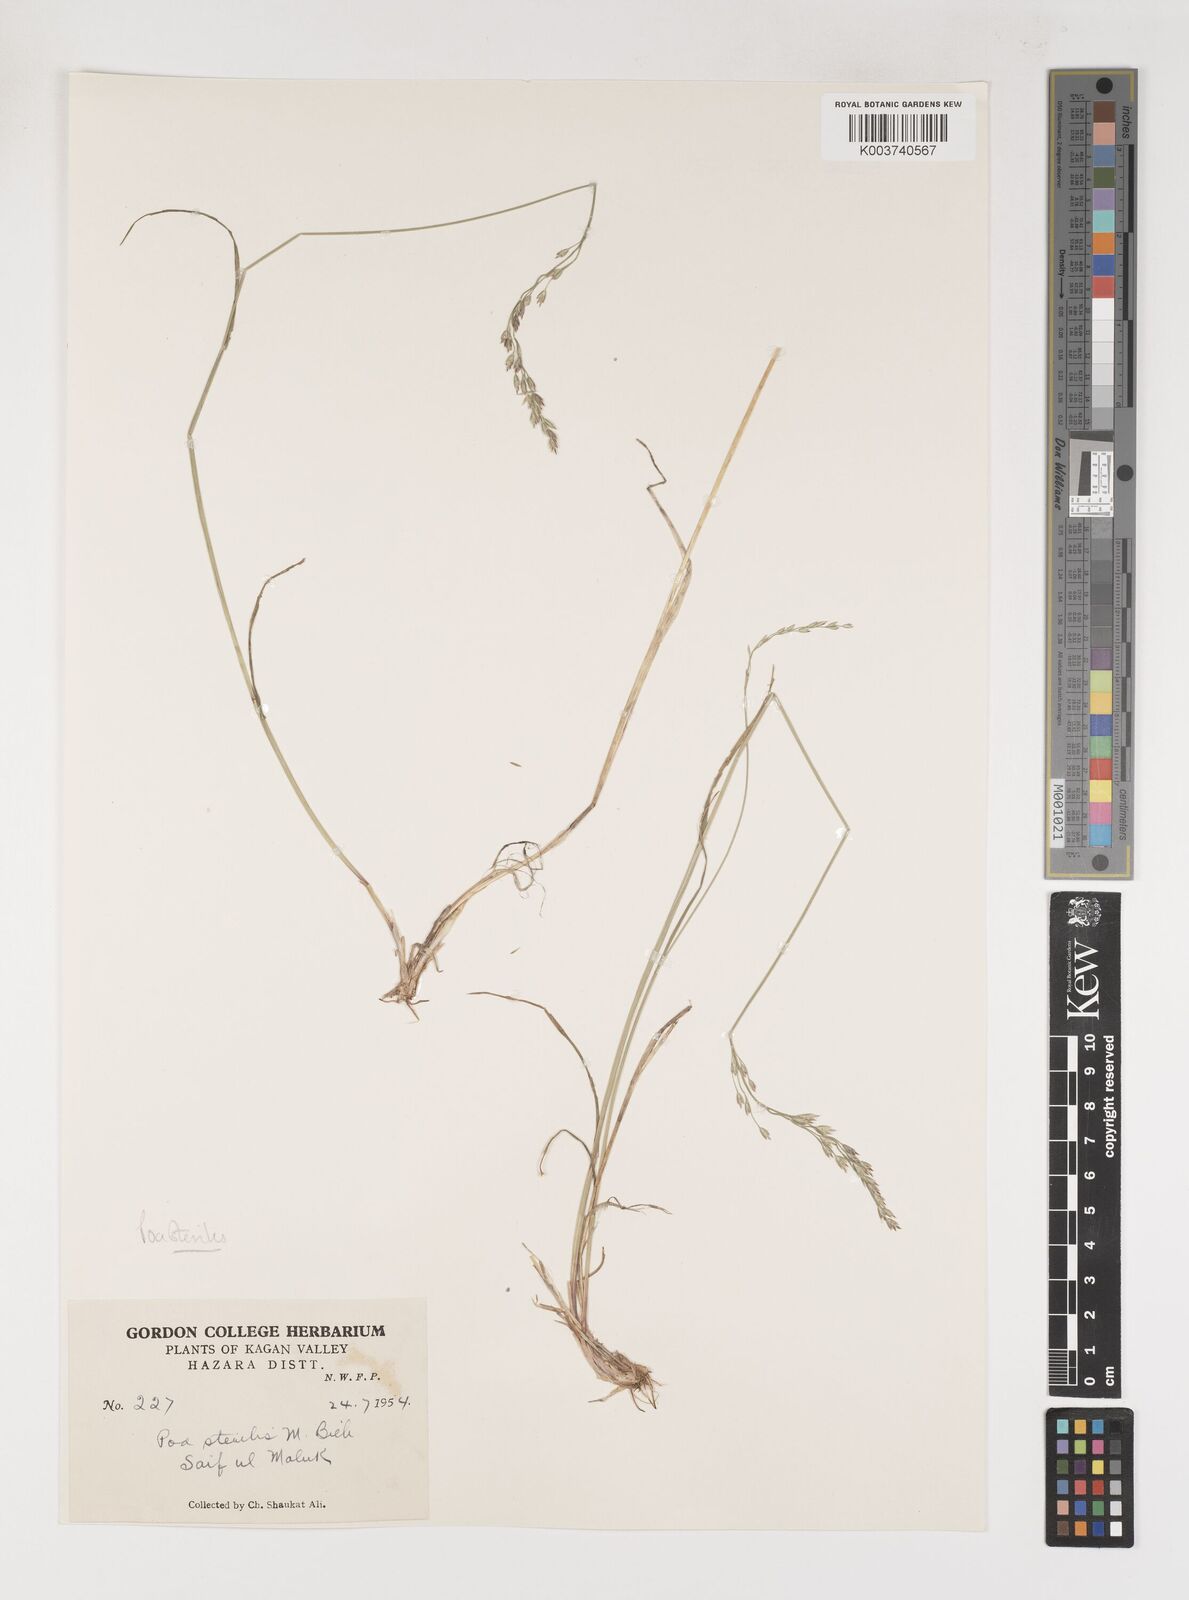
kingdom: Plantae
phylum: Tracheophyta
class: Liliopsida
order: Poales
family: Poaceae
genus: Poa
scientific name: Poa sterilis
